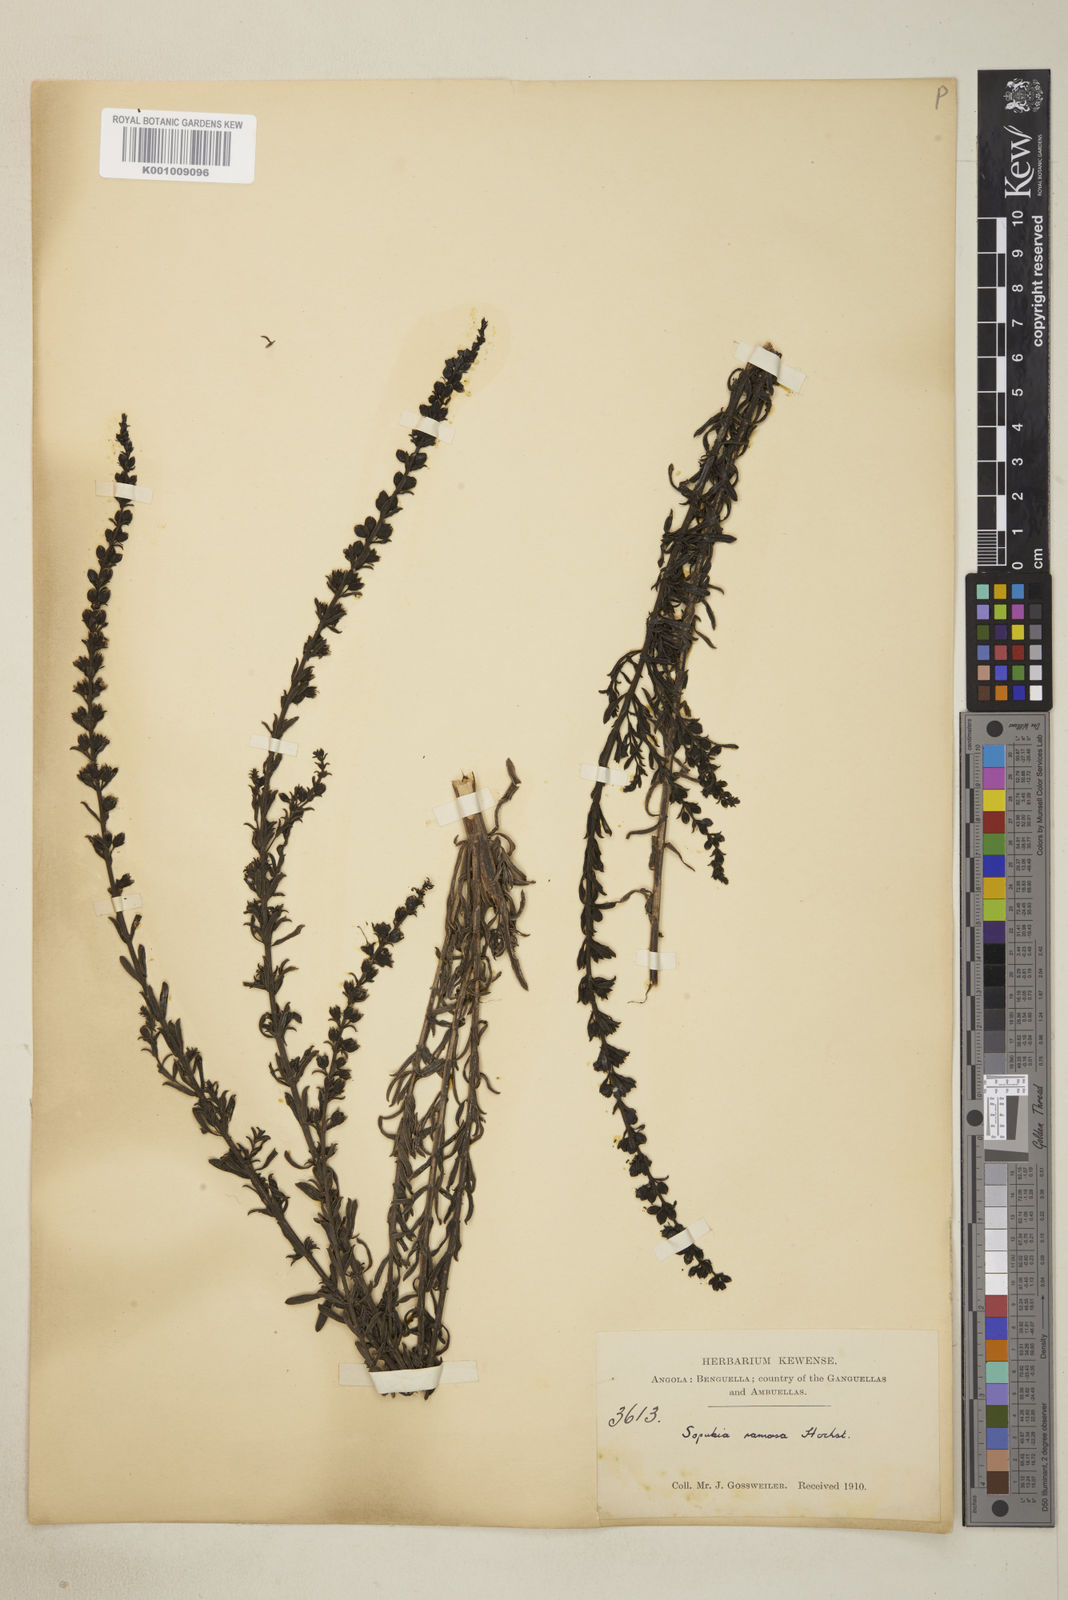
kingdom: Plantae
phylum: Tracheophyta
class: Magnoliopsida
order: Lamiales
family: Orobanchaceae
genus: Sopubia
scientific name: Sopubia ramosa
